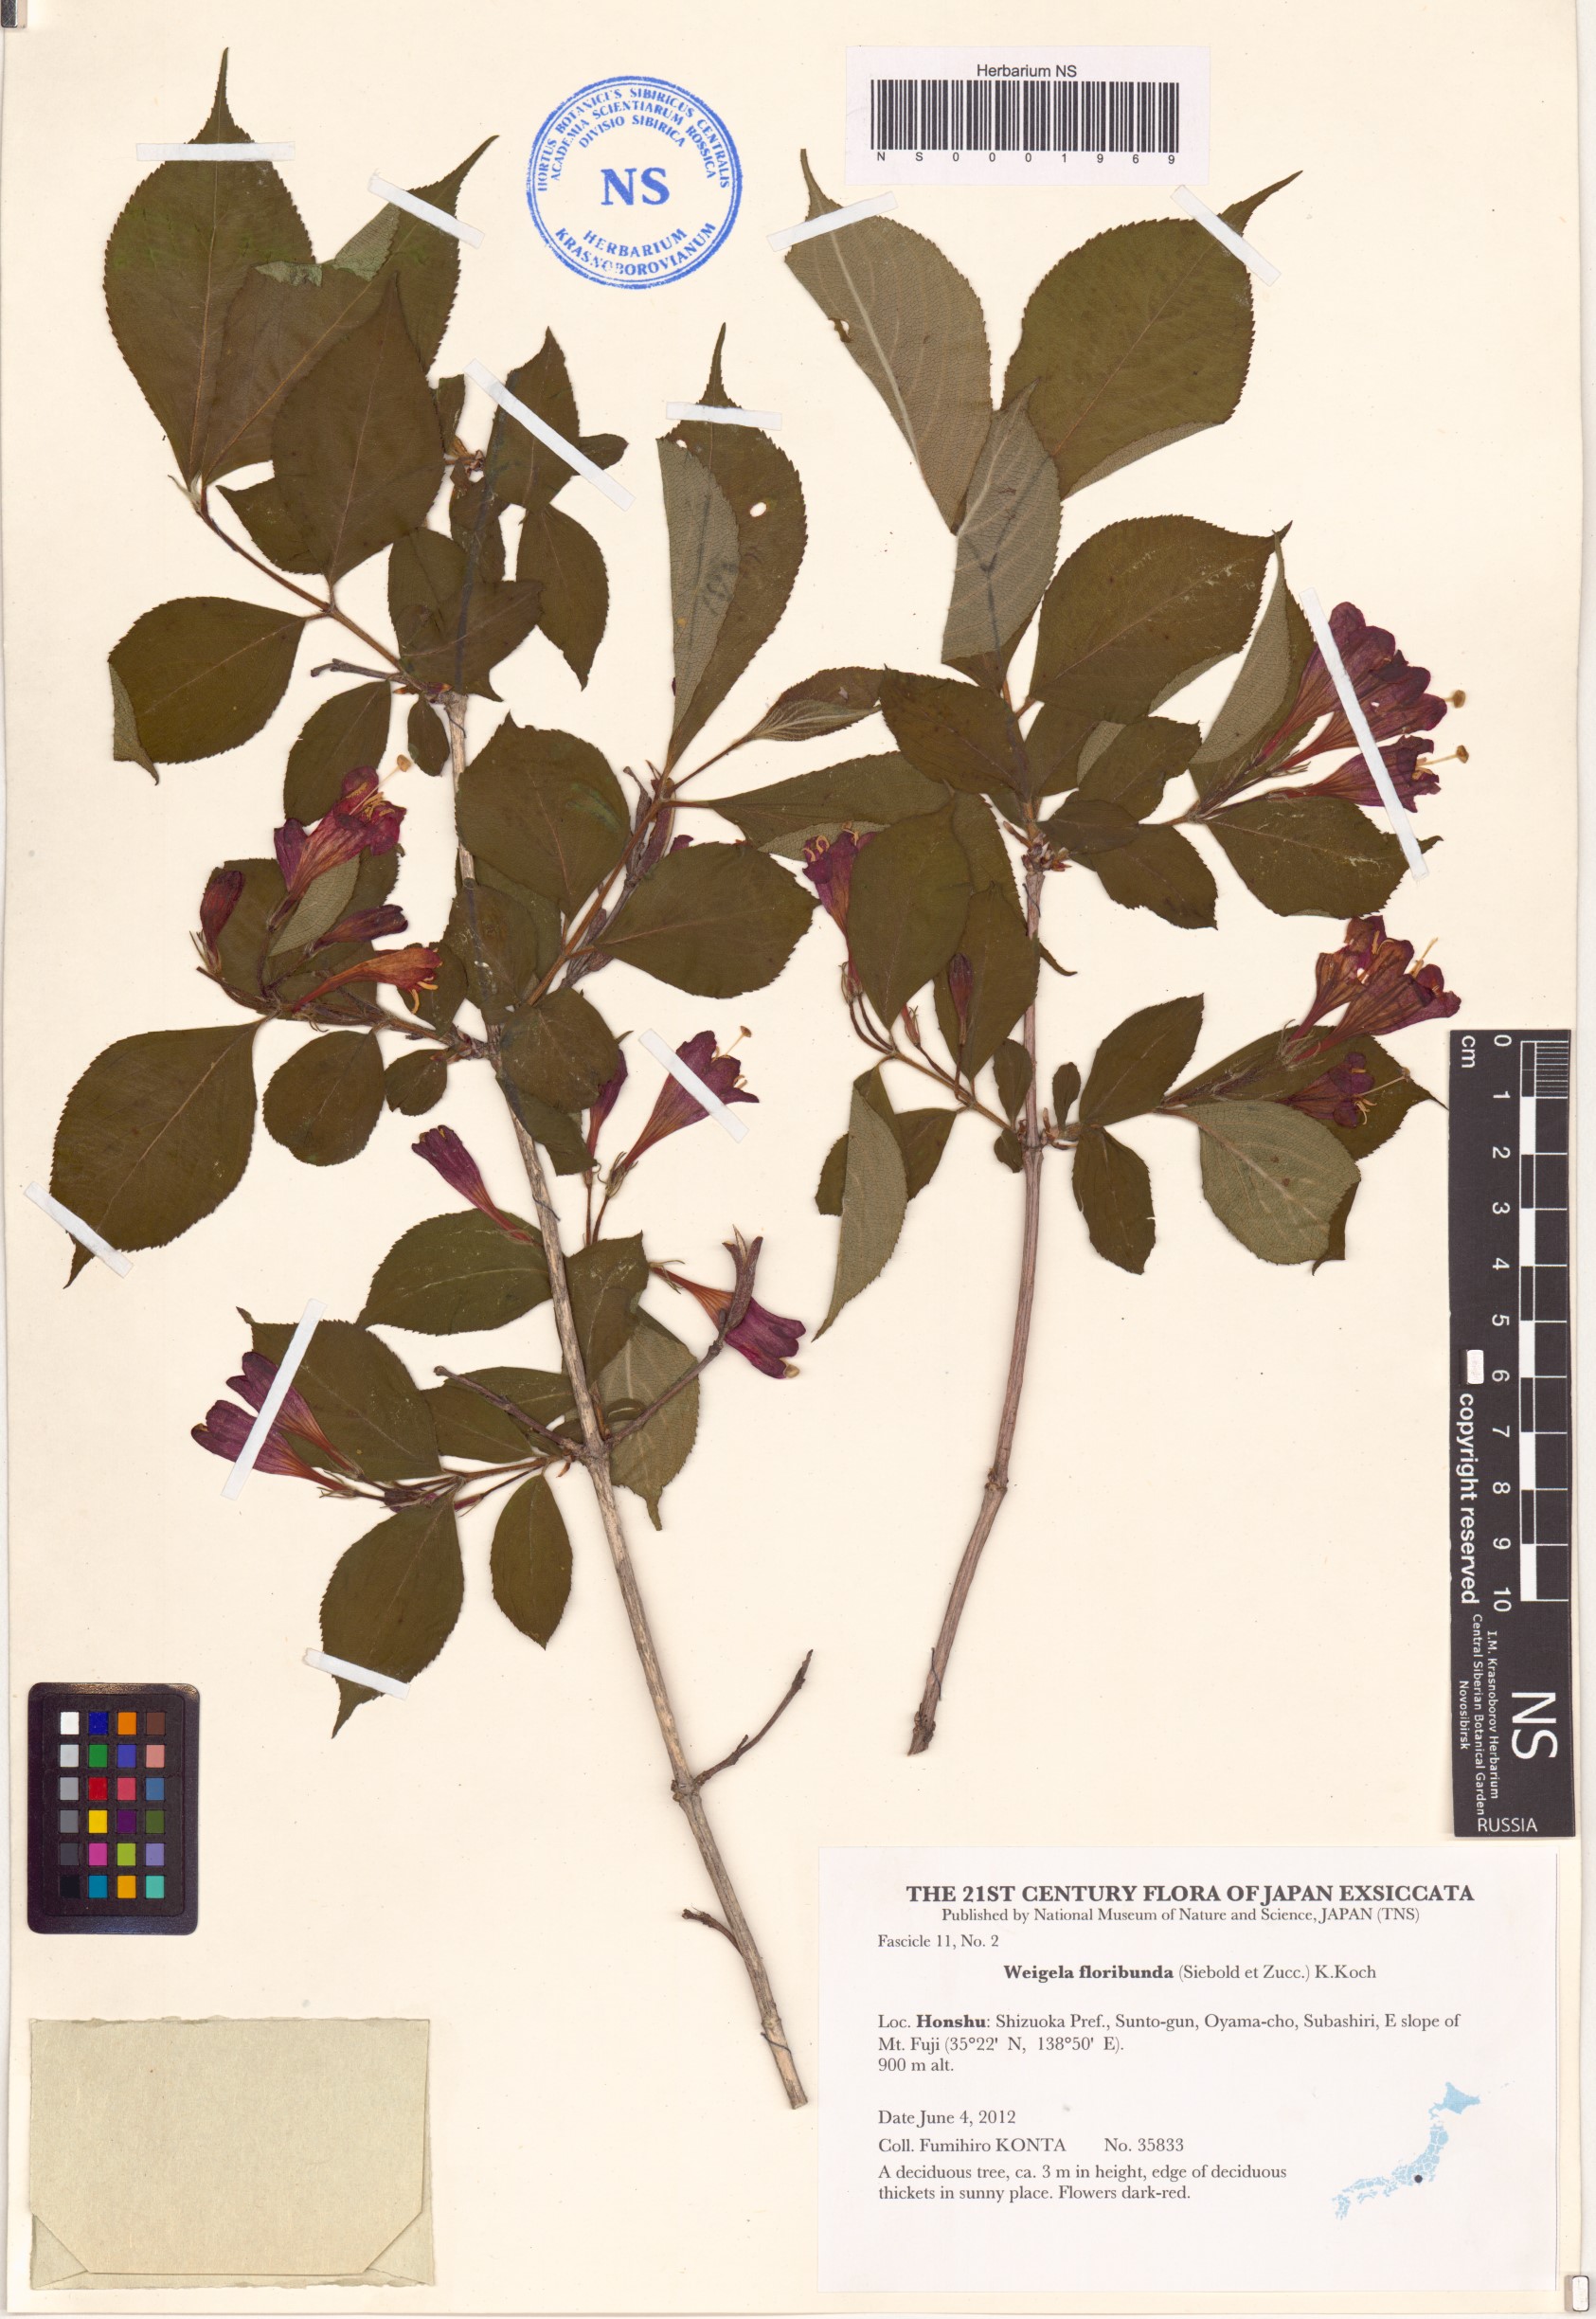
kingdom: Plantae
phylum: Tracheophyta
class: Magnoliopsida
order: Dipsacales
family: Caprifoliaceae
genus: Weigela
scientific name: Weigela hortensis
